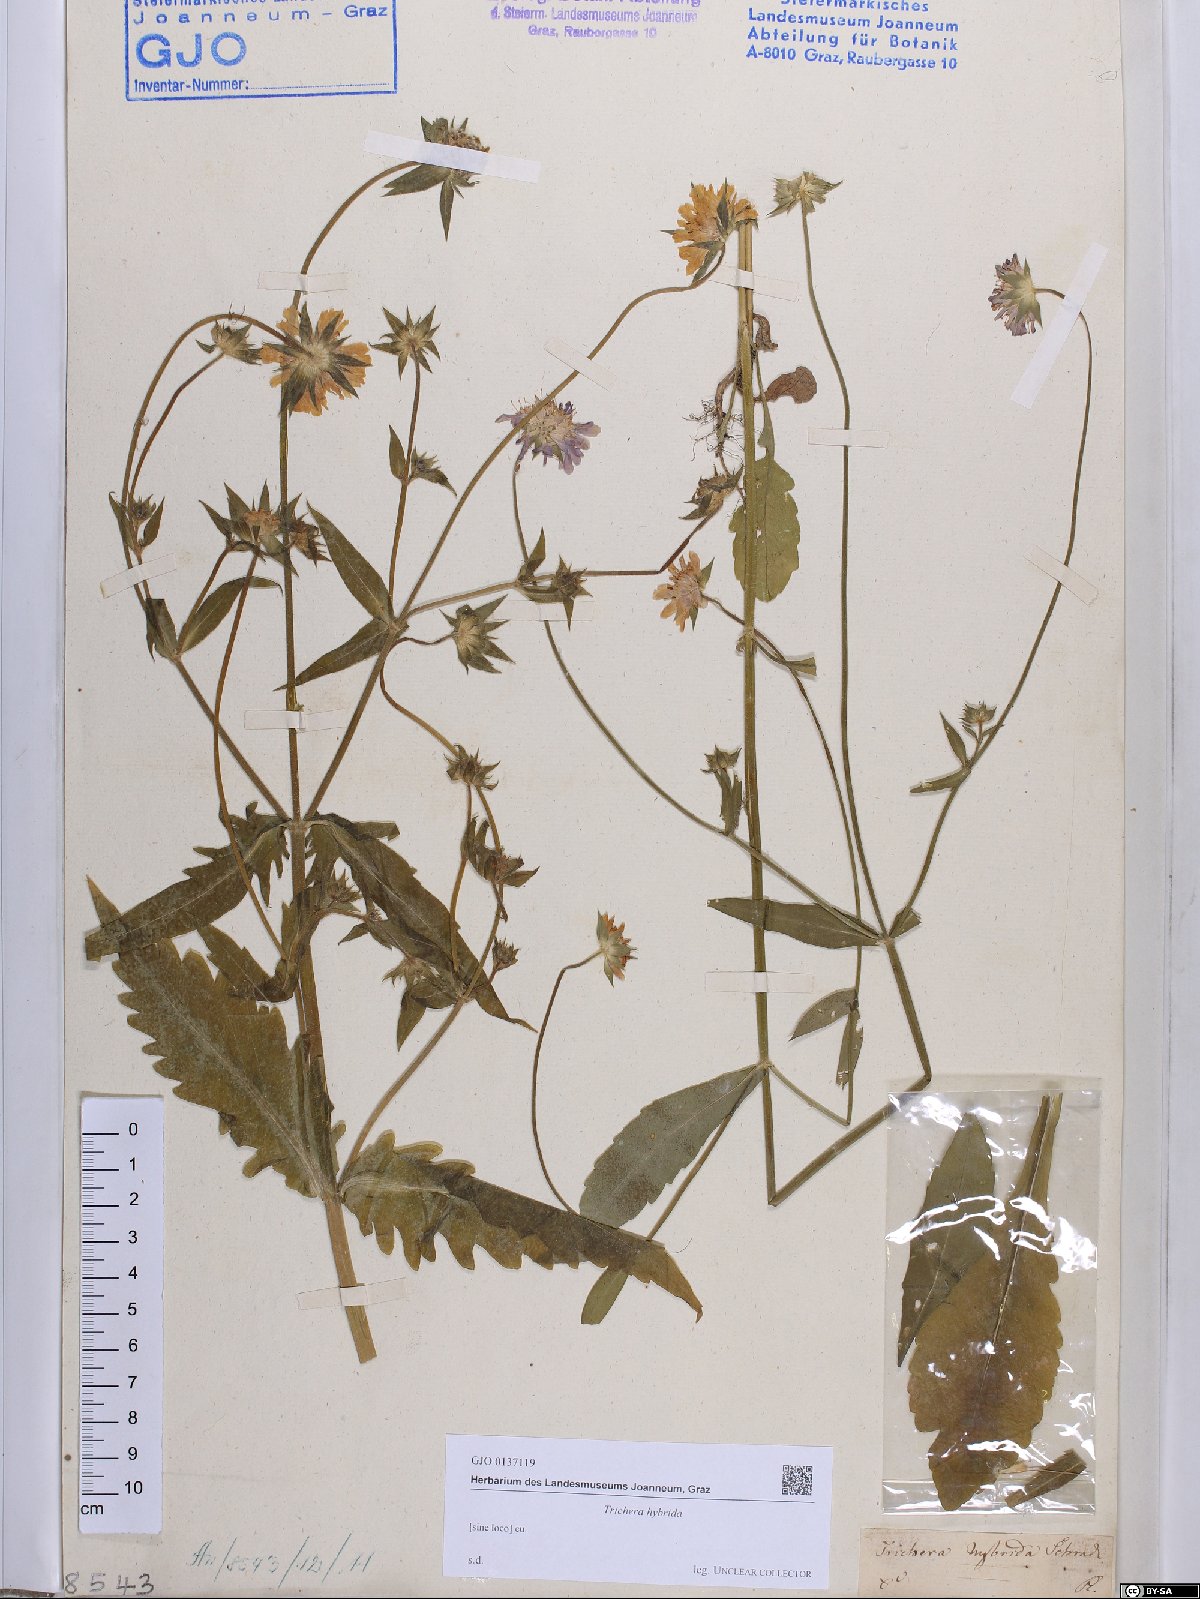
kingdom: Plantae
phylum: Tracheophyta
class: Magnoliopsida
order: Dipsacales
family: Caprifoliaceae
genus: Knautia
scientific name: Knautia integrifolia
